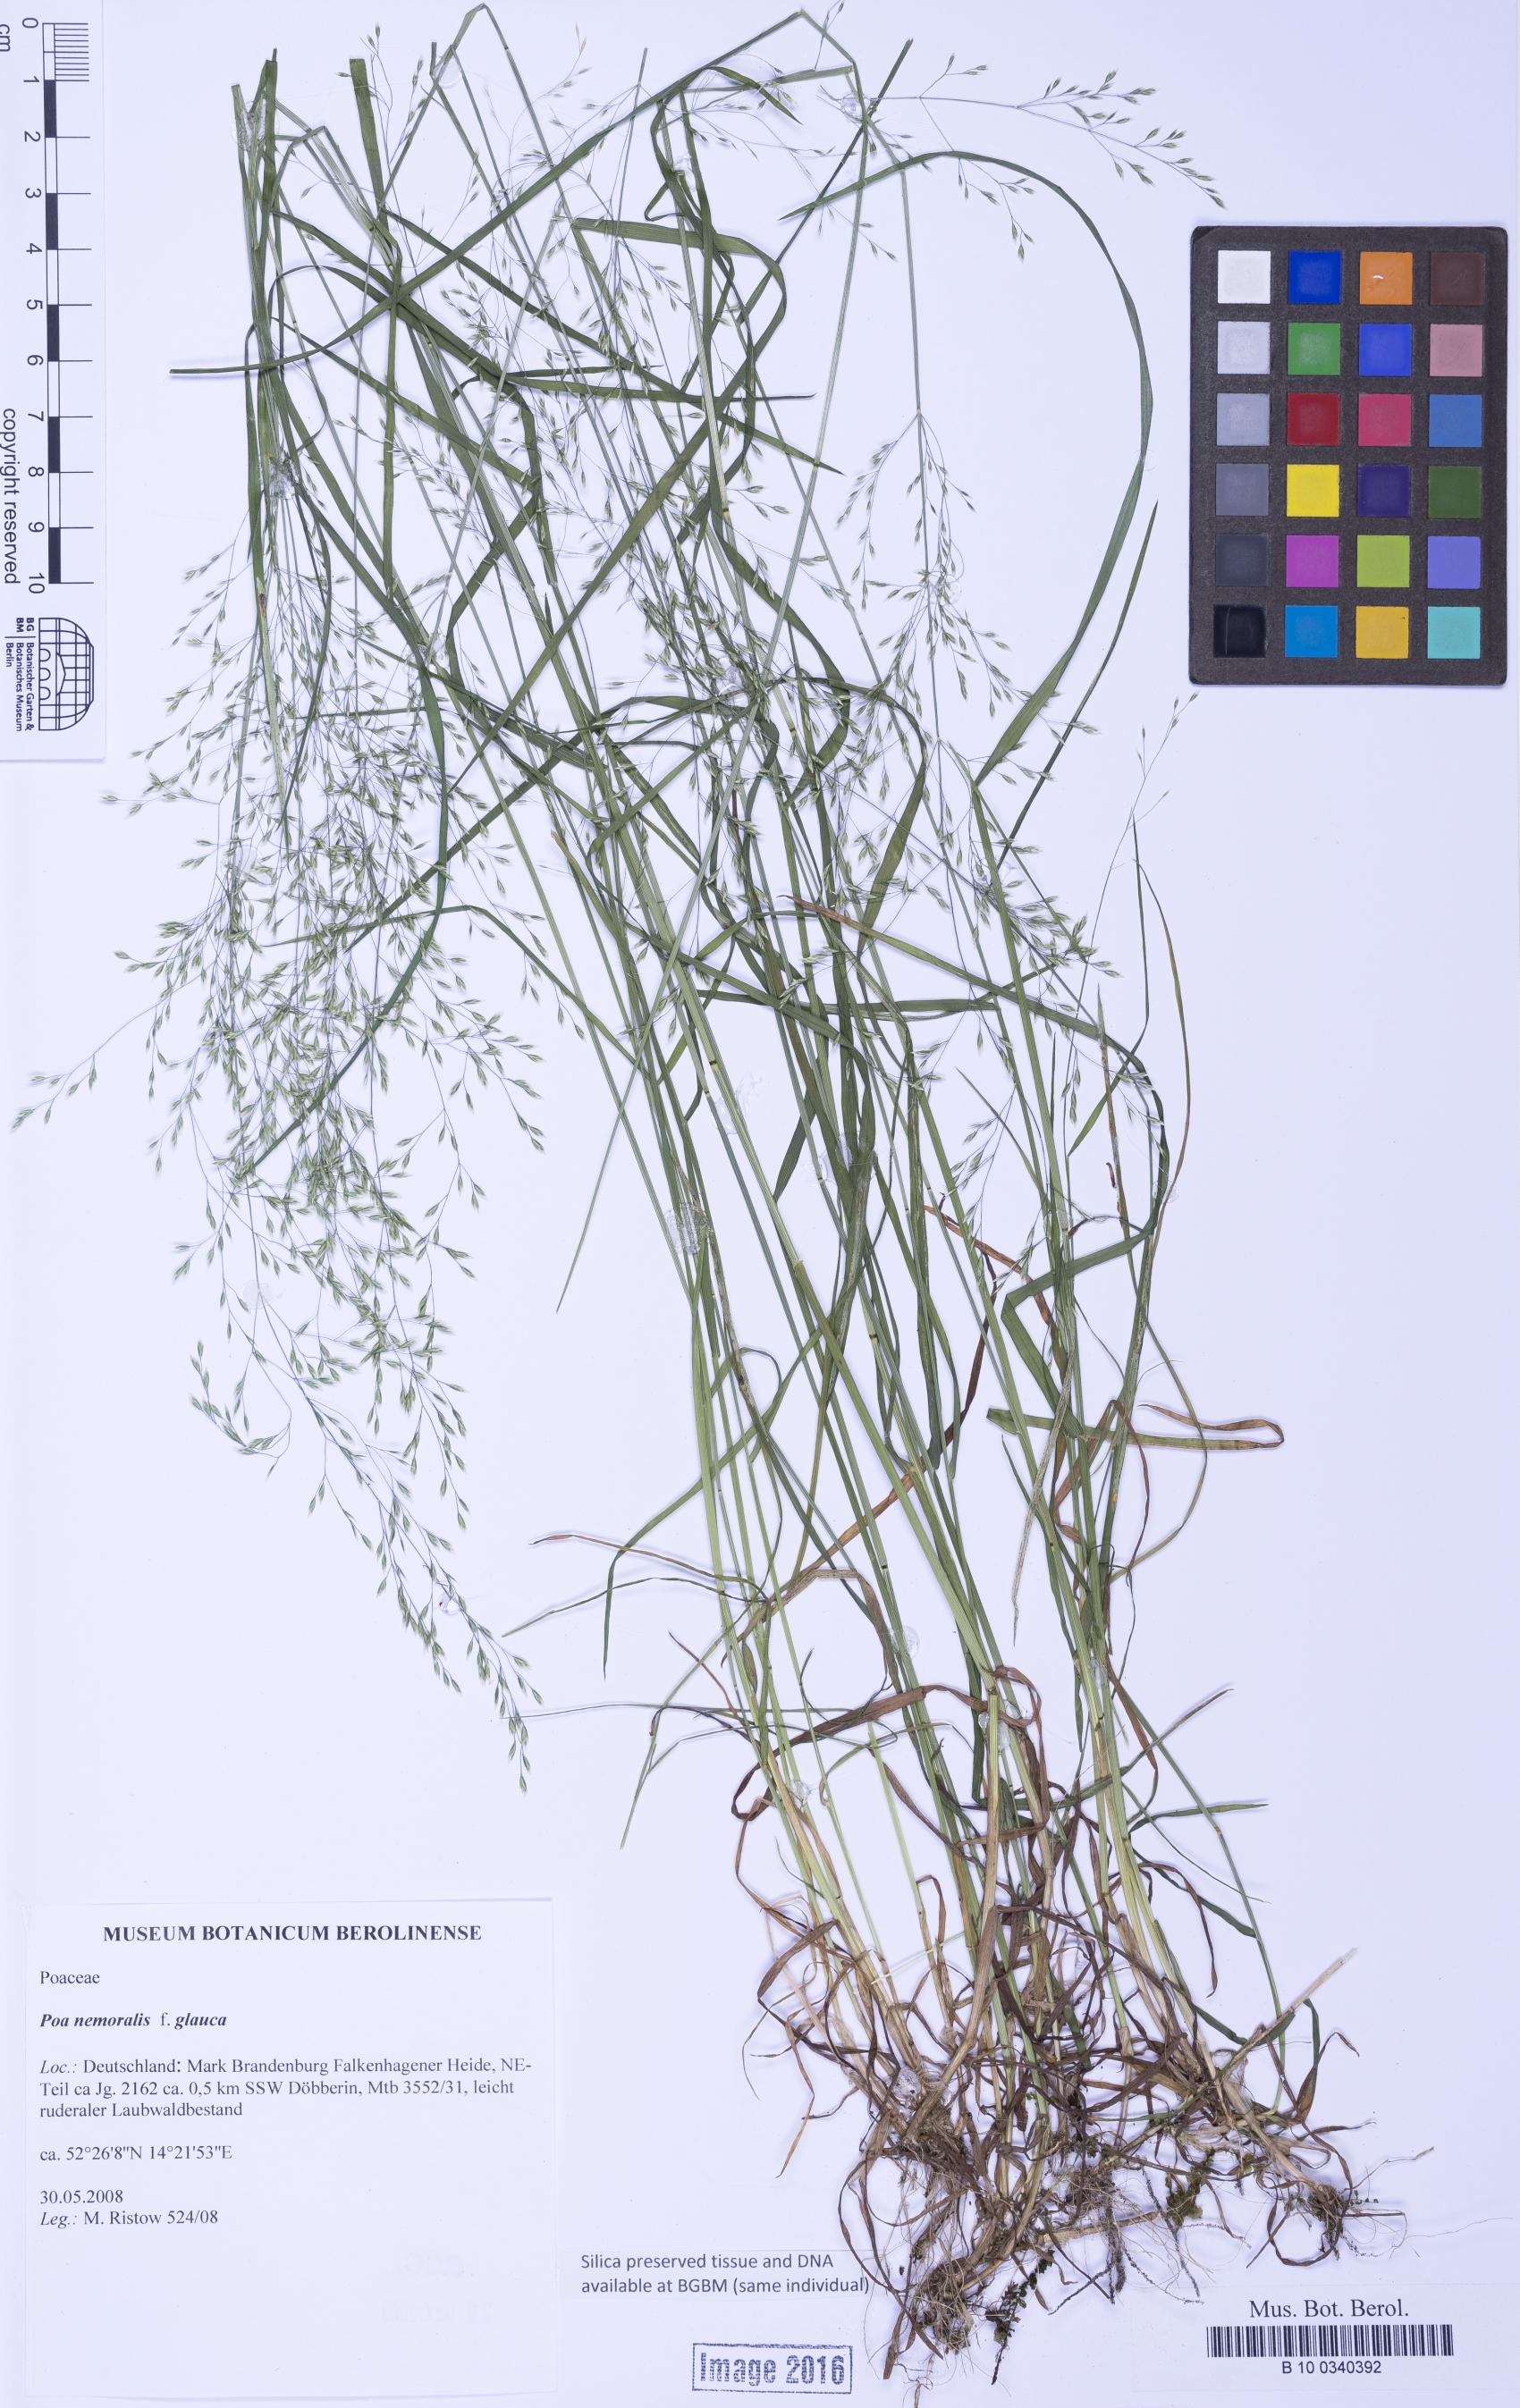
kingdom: Plantae
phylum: Tracheophyta
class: Liliopsida
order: Poales
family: Poaceae
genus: Poa
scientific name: Poa nemoralis
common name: Wood bluegrass
